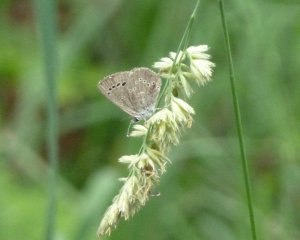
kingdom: Animalia
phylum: Arthropoda
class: Insecta
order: Lepidoptera
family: Lycaenidae
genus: Glaucopsyche
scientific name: Glaucopsyche lygdamus
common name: Silvery Blue
